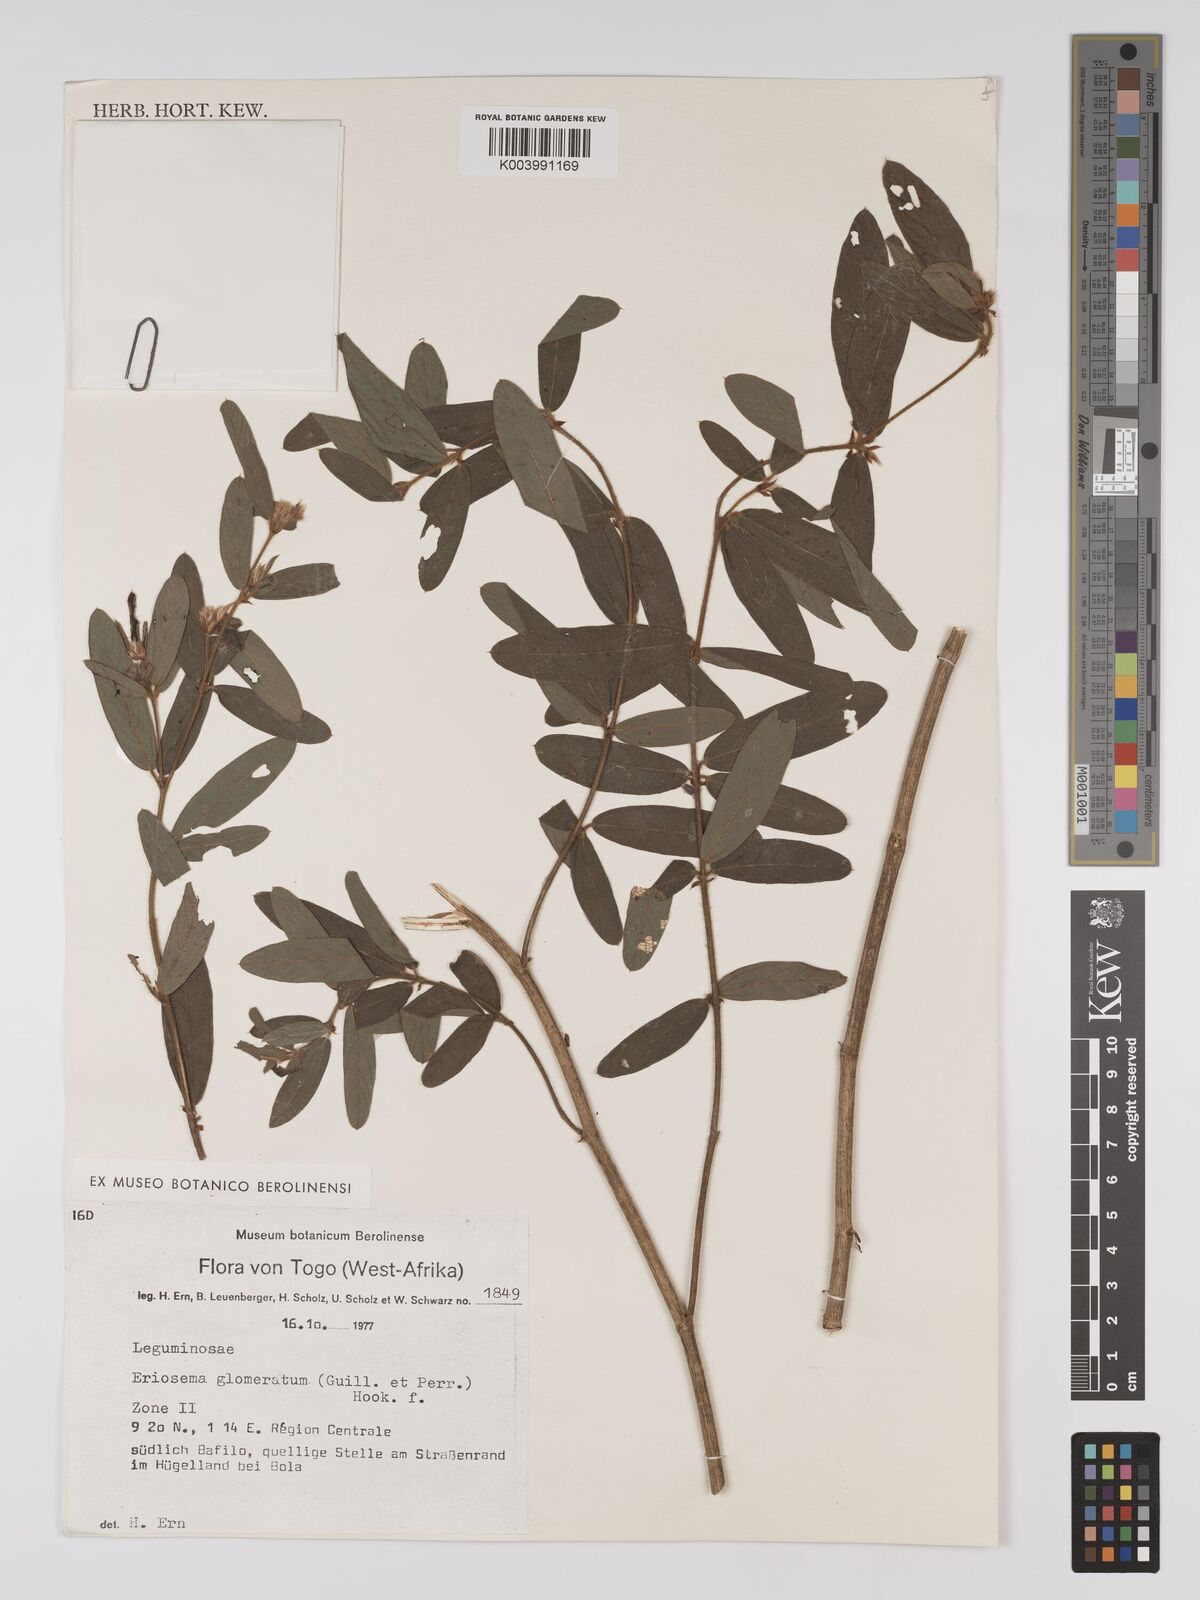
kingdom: Plantae
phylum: Tracheophyta
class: Magnoliopsida
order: Fabales
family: Fabaceae
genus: Eriosema
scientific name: Eriosema glomeratum
